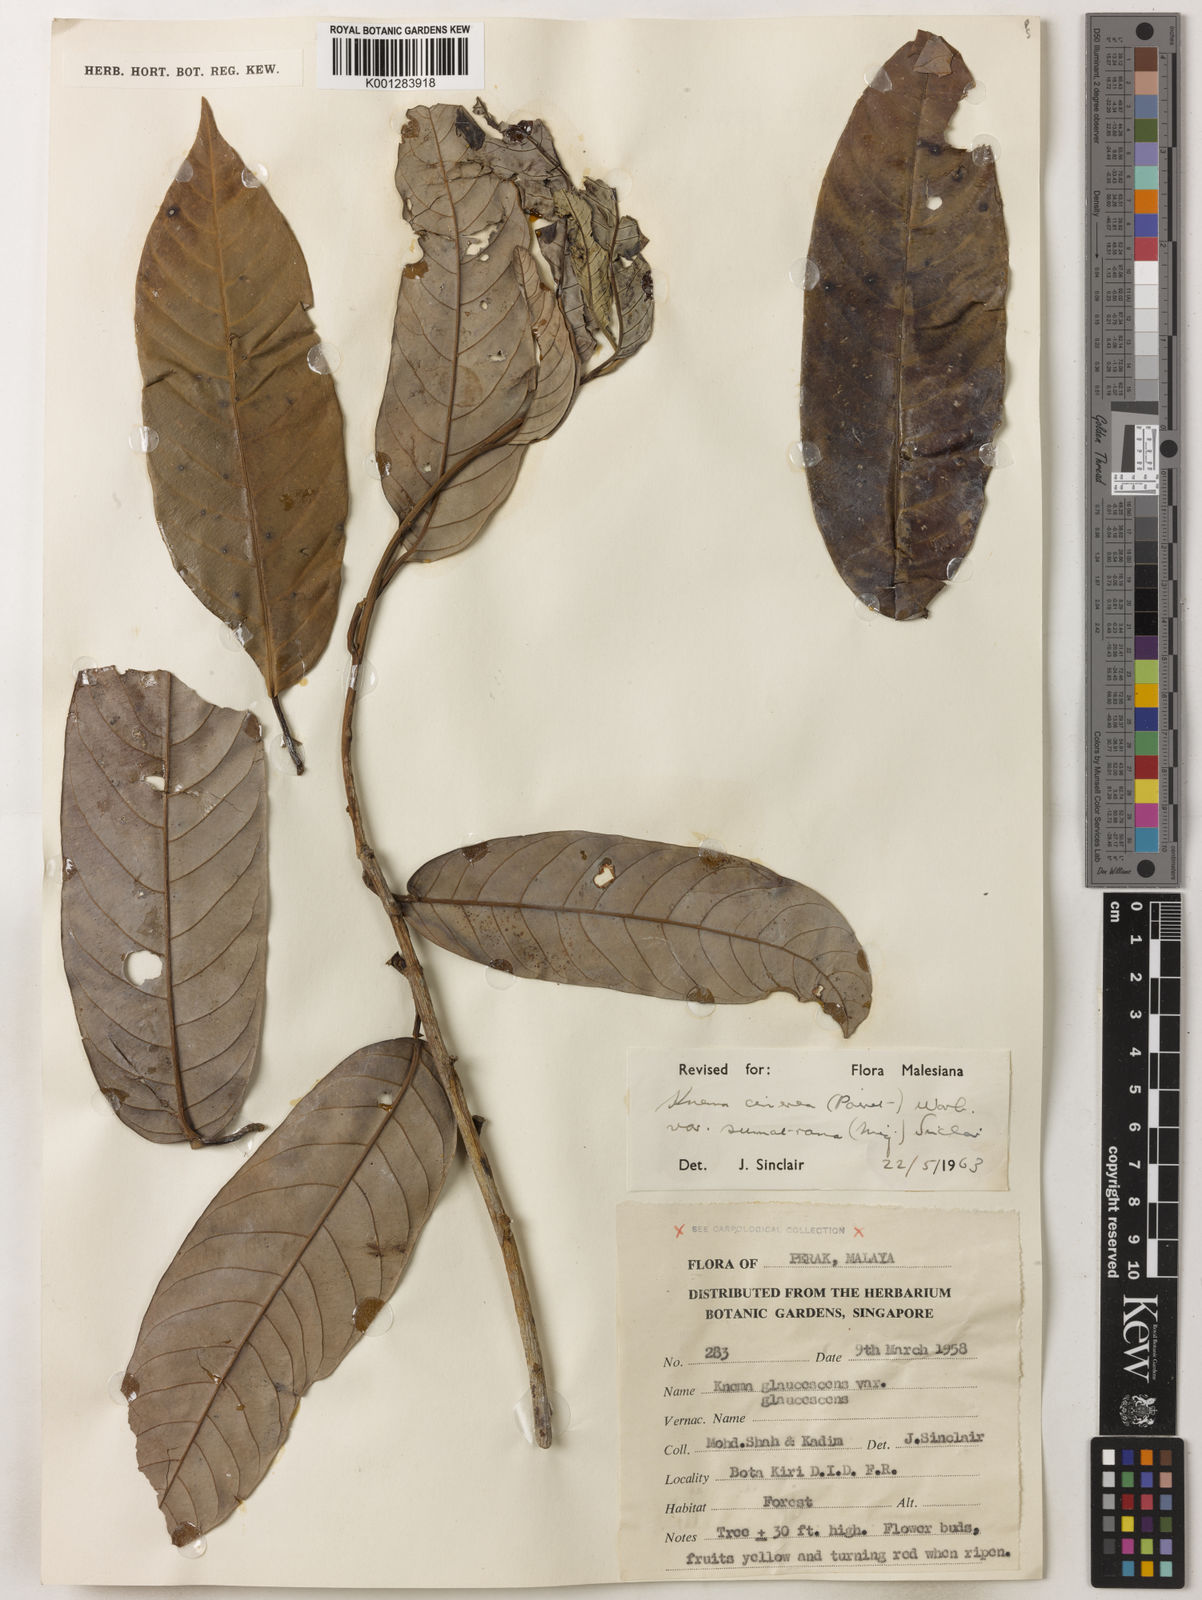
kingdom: Plantae
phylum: Tracheophyta
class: Magnoliopsida
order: Magnoliales
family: Myristicaceae
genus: Knema
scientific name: Knema
